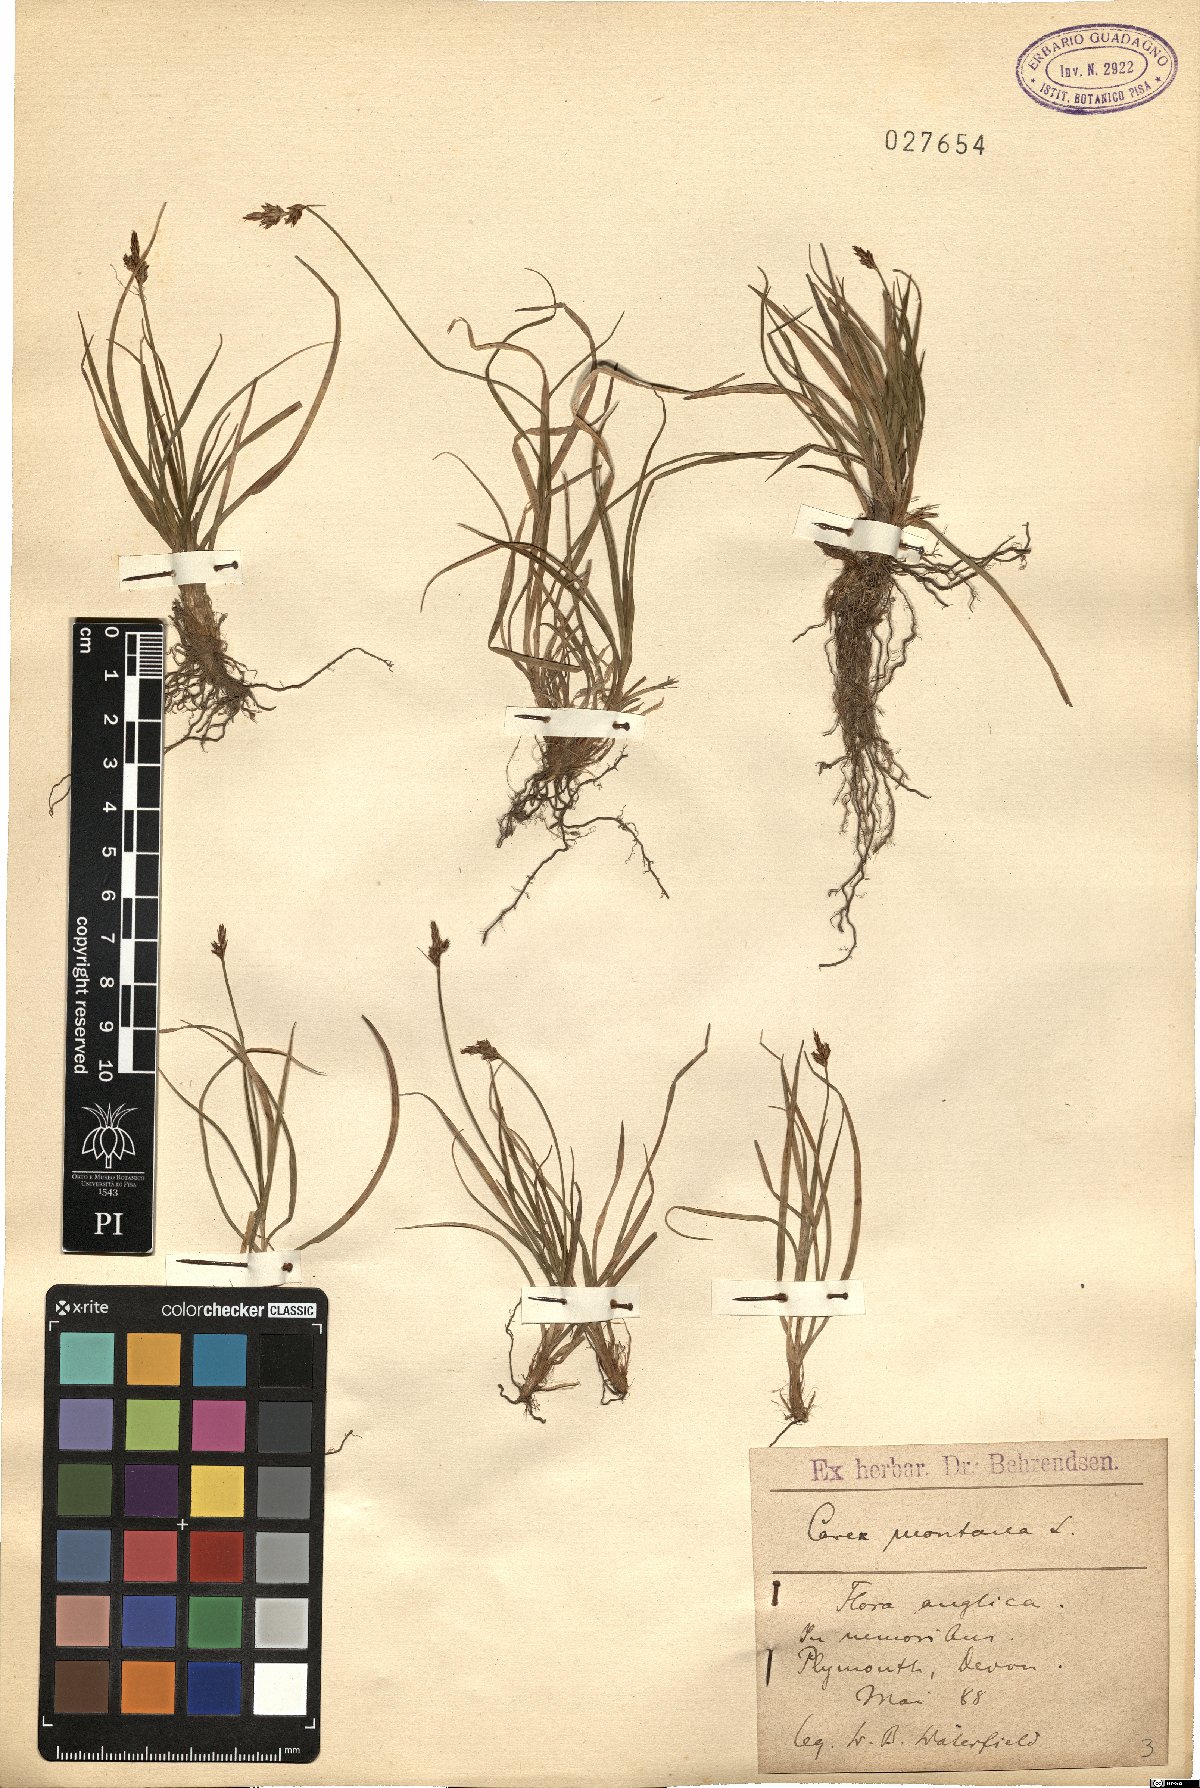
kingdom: Plantae
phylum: Tracheophyta
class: Liliopsida
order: Poales
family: Cyperaceae
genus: Carex
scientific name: Carex montana
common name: Soft-leaved sedge
